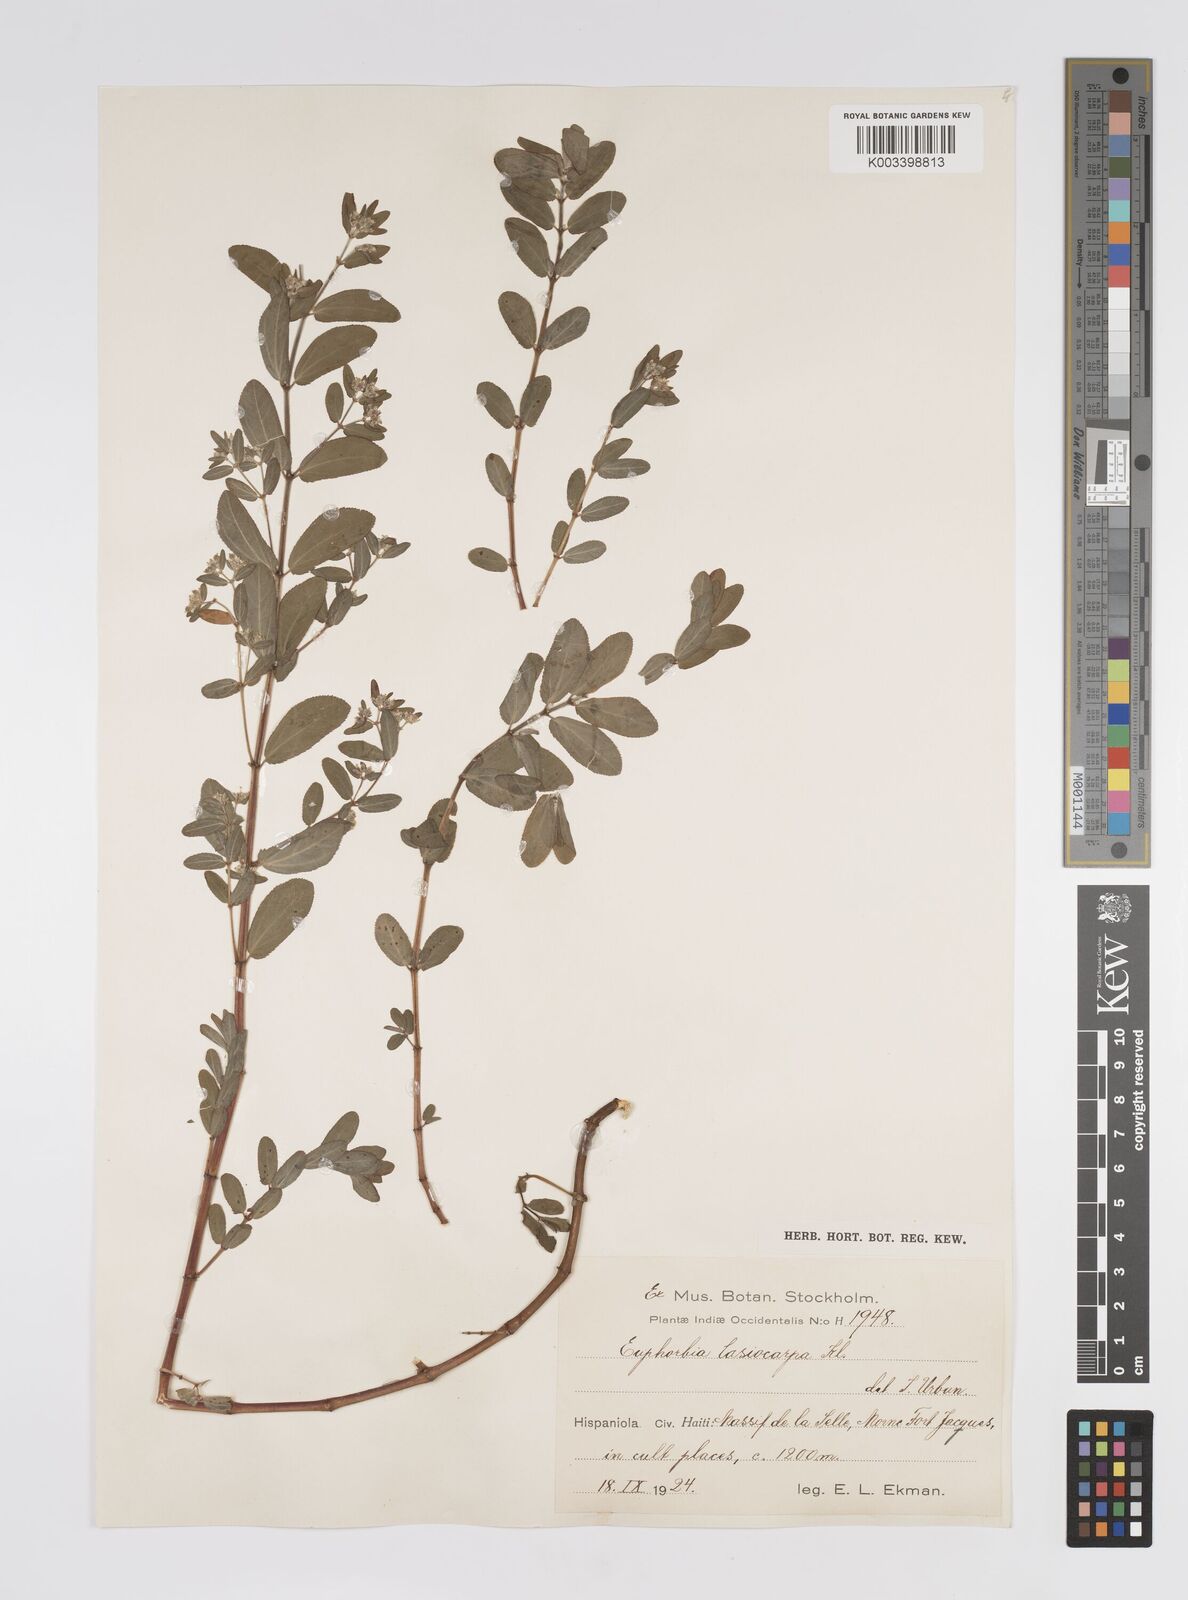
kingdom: Plantae
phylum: Tracheophyta
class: Magnoliopsida
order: Malpighiales
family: Euphorbiaceae
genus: Euphorbia
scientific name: Euphorbia lasiocarpa
